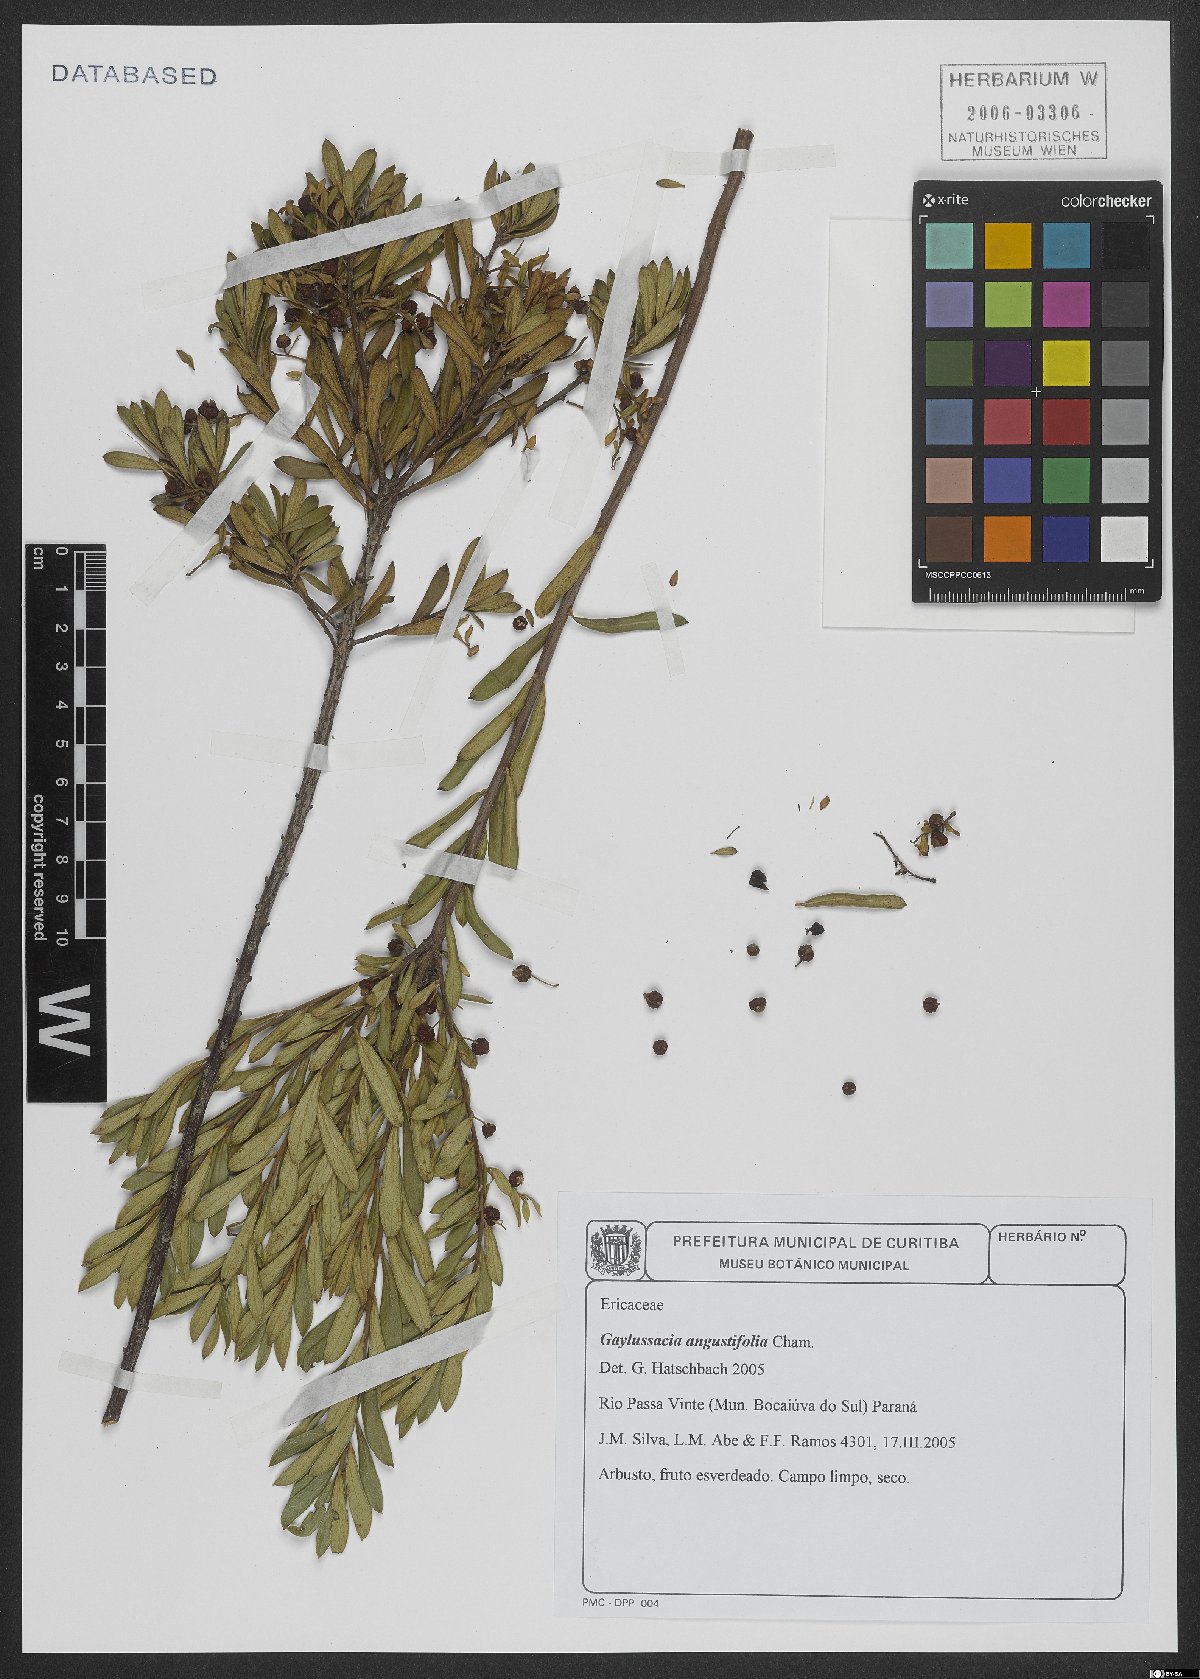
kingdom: Plantae
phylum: Tracheophyta
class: Magnoliopsida
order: Ericales
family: Ericaceae
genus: Gaylussacia
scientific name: Gaylussacia angustifolia
